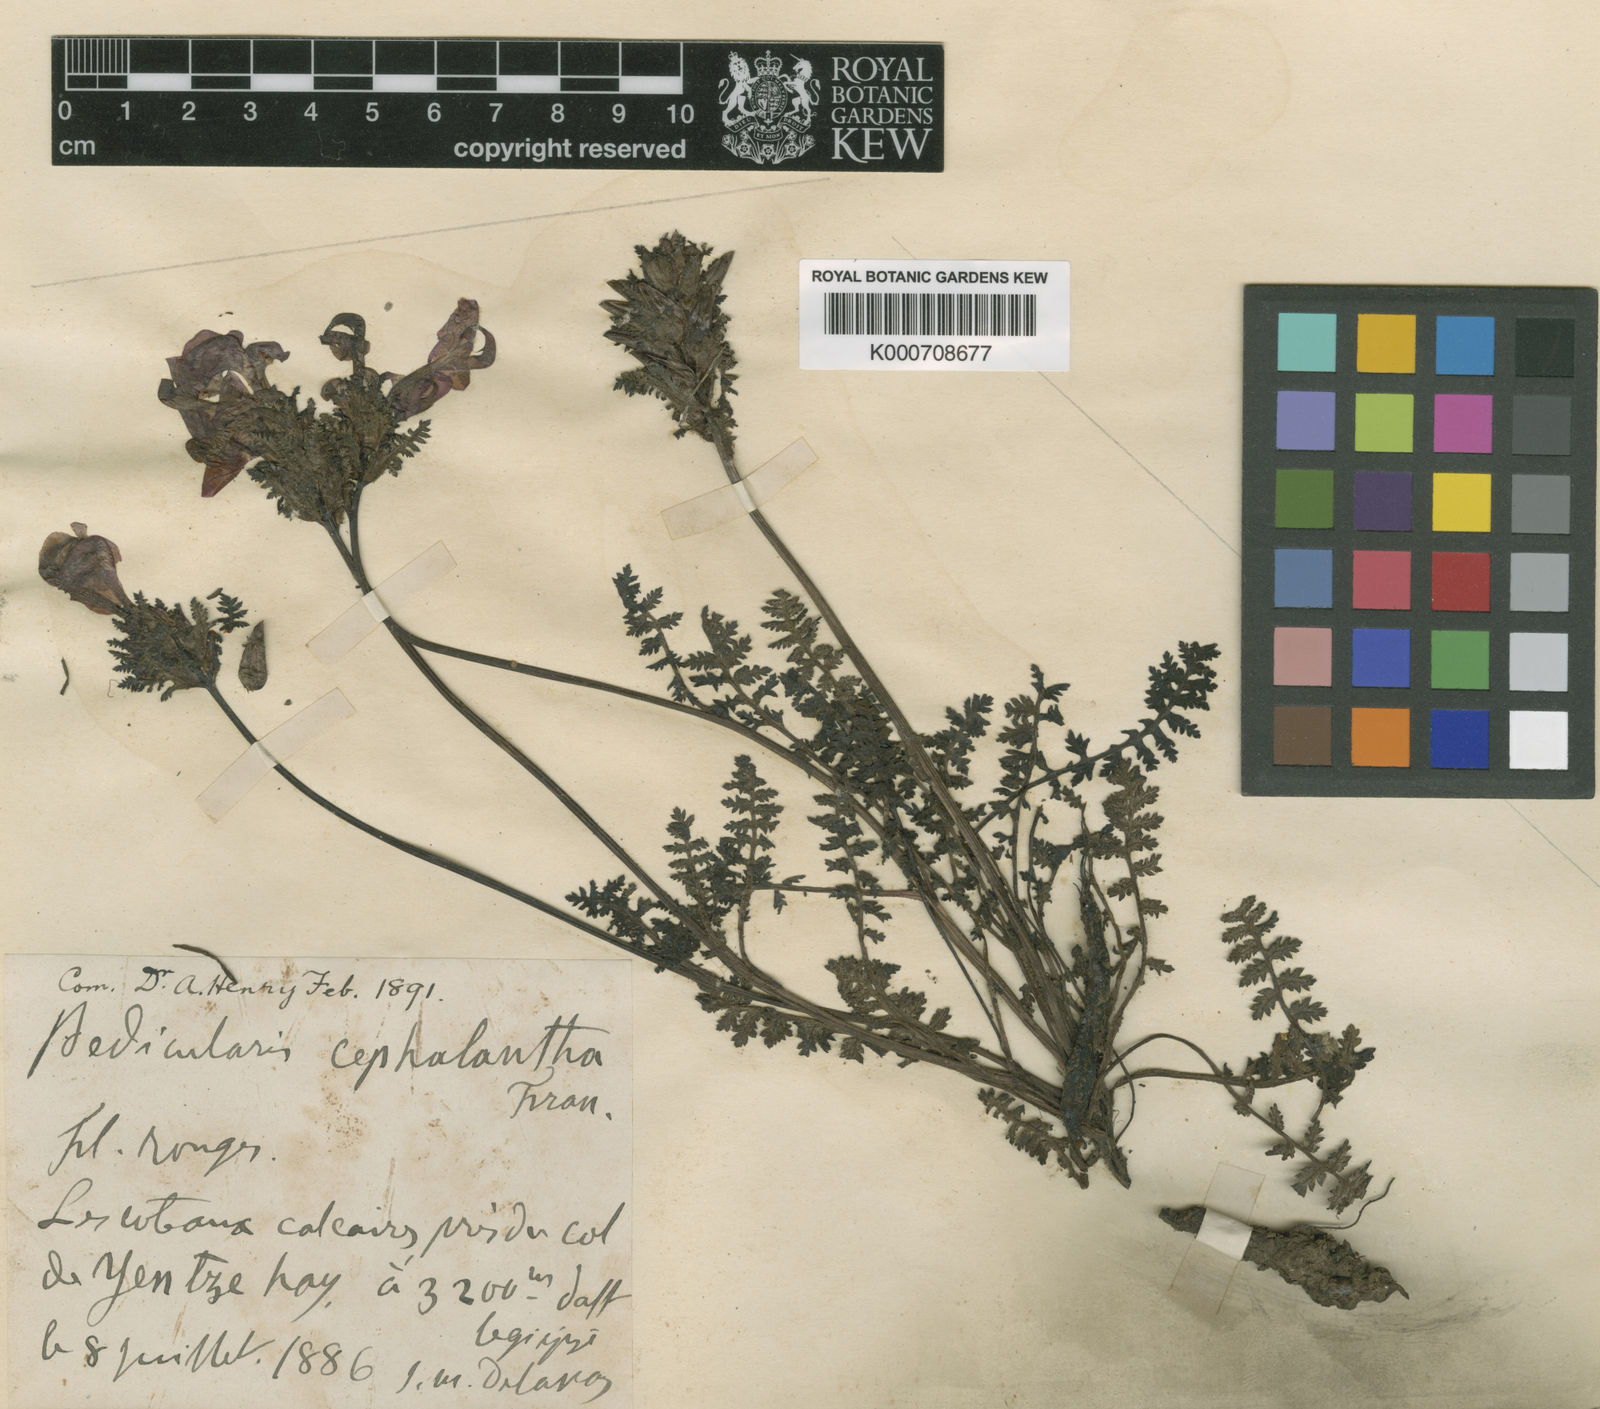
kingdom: Plantae
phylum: Tracheophyta
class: Magnoliopsida
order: Lamiales
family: Orobanchaceae
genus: Pedicularis
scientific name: Pedicularis cephalantha
